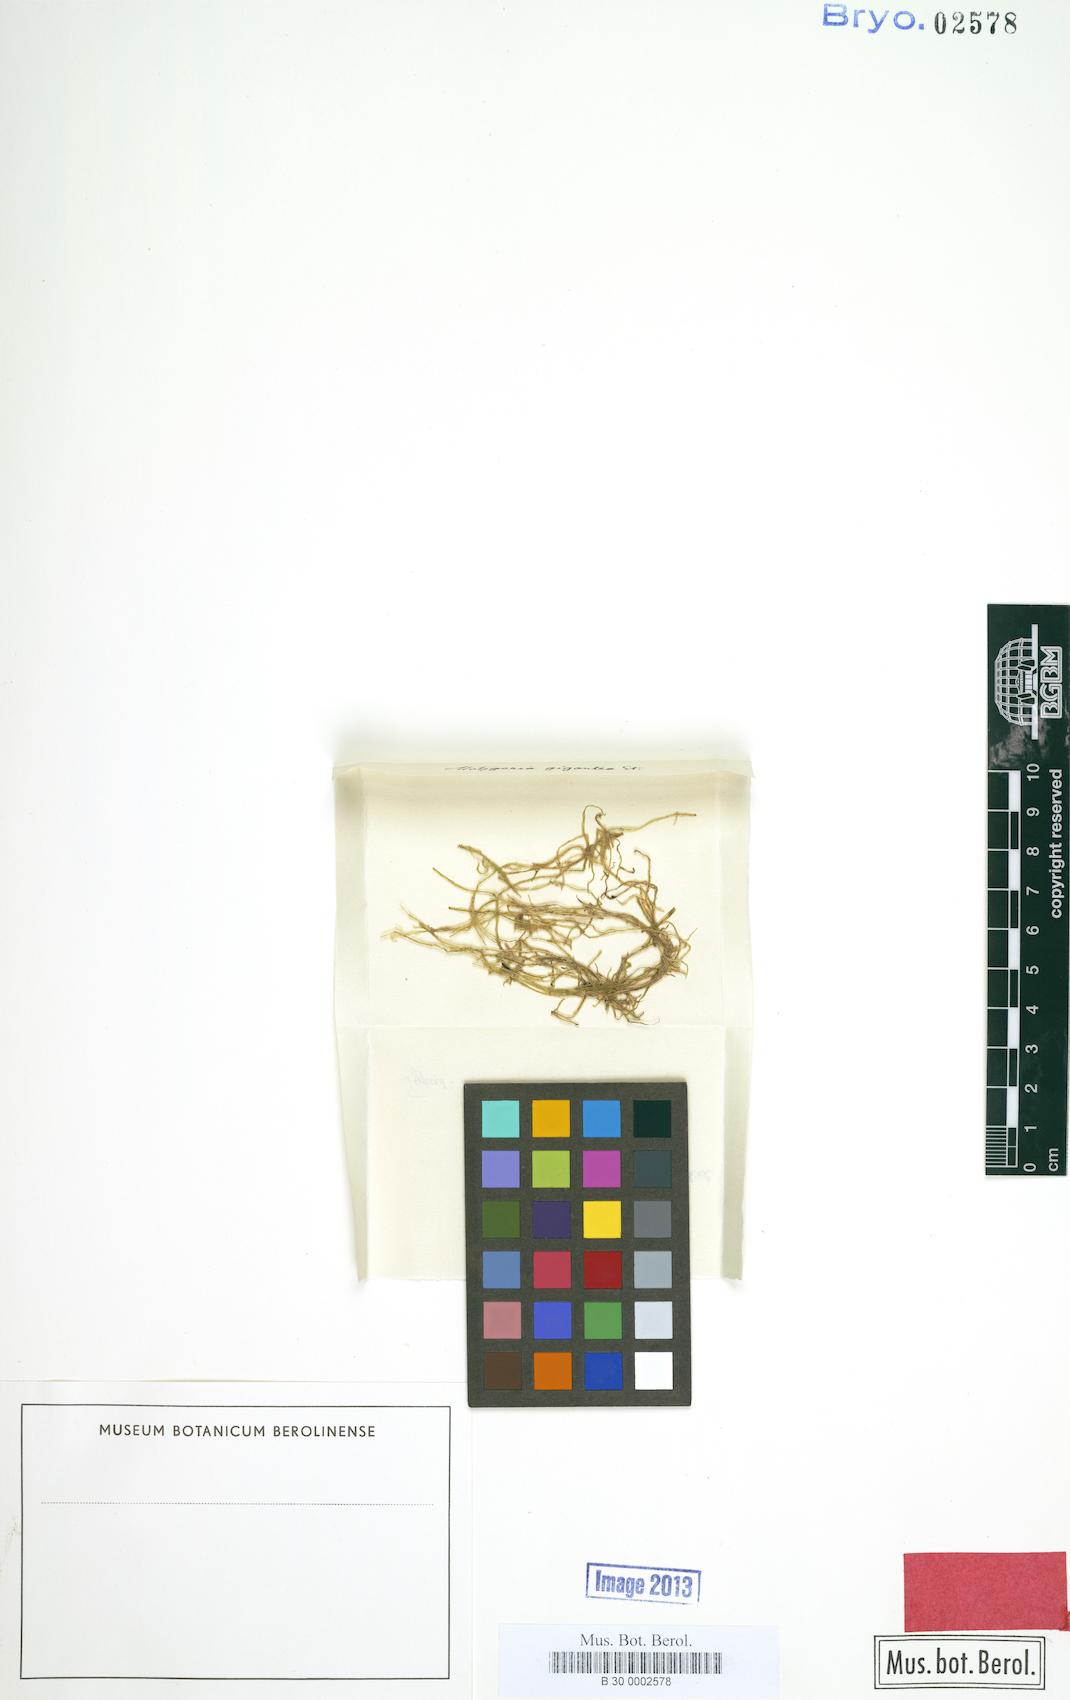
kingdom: Plantae
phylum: Marchantiophyta
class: Jungermanniopsida
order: Metzgeriales
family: Metzgeriaceae
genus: Metzgeria
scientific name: Metzgeria claviflora
